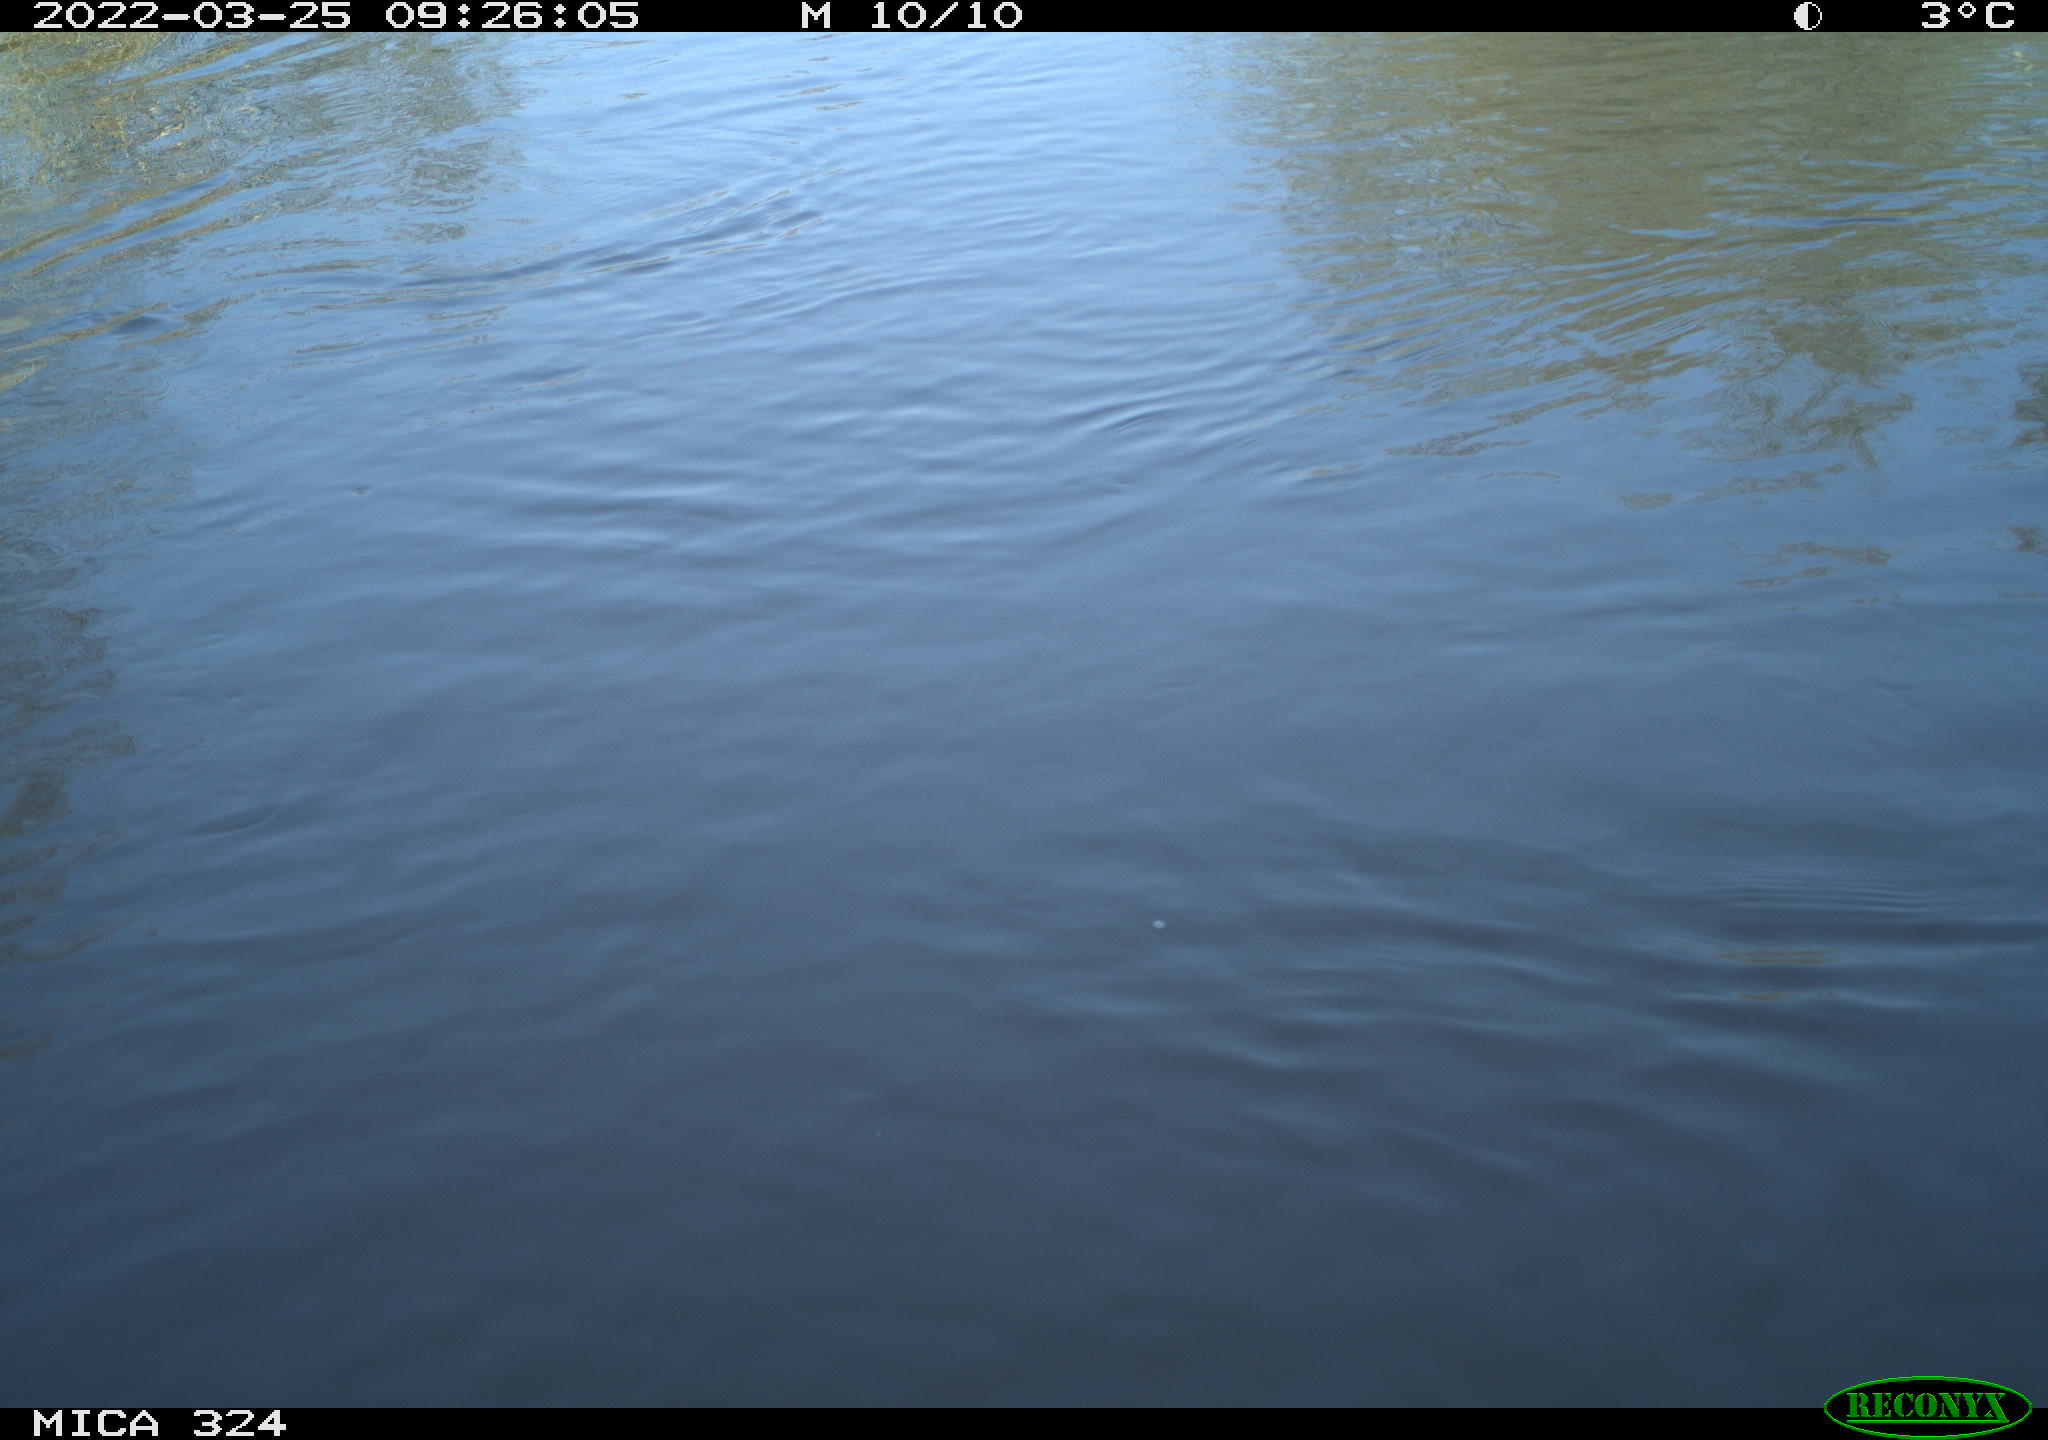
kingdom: Animalia
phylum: Chordata
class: Mammalia
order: Rodentia
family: Cricetidae
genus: Ondatra
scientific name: Ondatra zibethicus
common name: Muskrat
